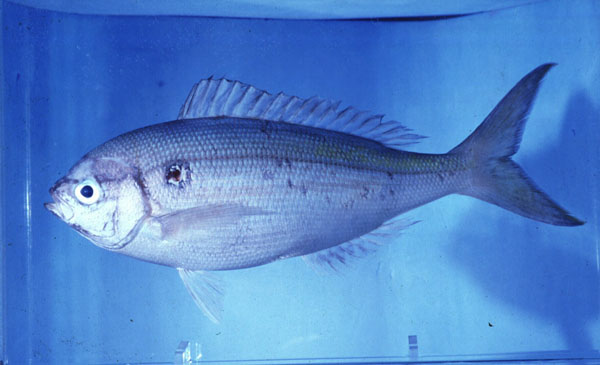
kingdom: Animalia
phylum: Chordata
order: Perciformes
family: Lutjanidae
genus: Paracaesio
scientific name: Paracaesio xanthura
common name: Yellowtail blue snapper
